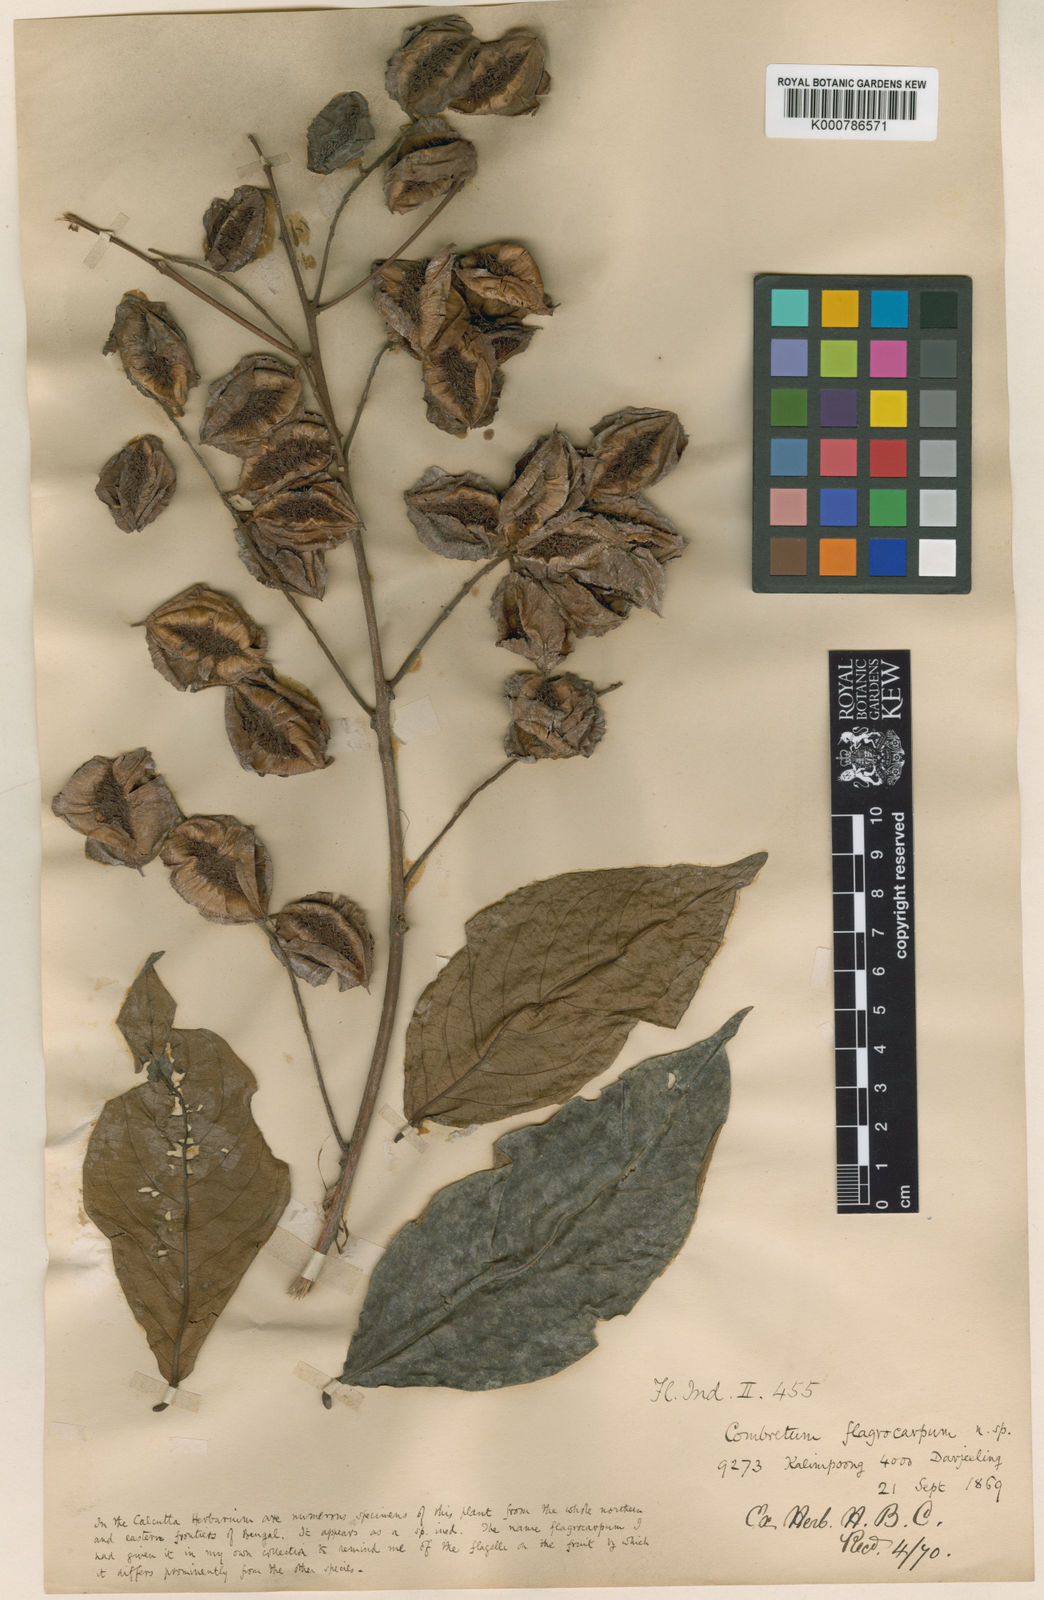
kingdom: Plantae
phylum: Tracheophyta
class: Magnoliopsida
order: Myrtales
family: Combretaceae
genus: Combretum
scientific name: Combretum wallichii
